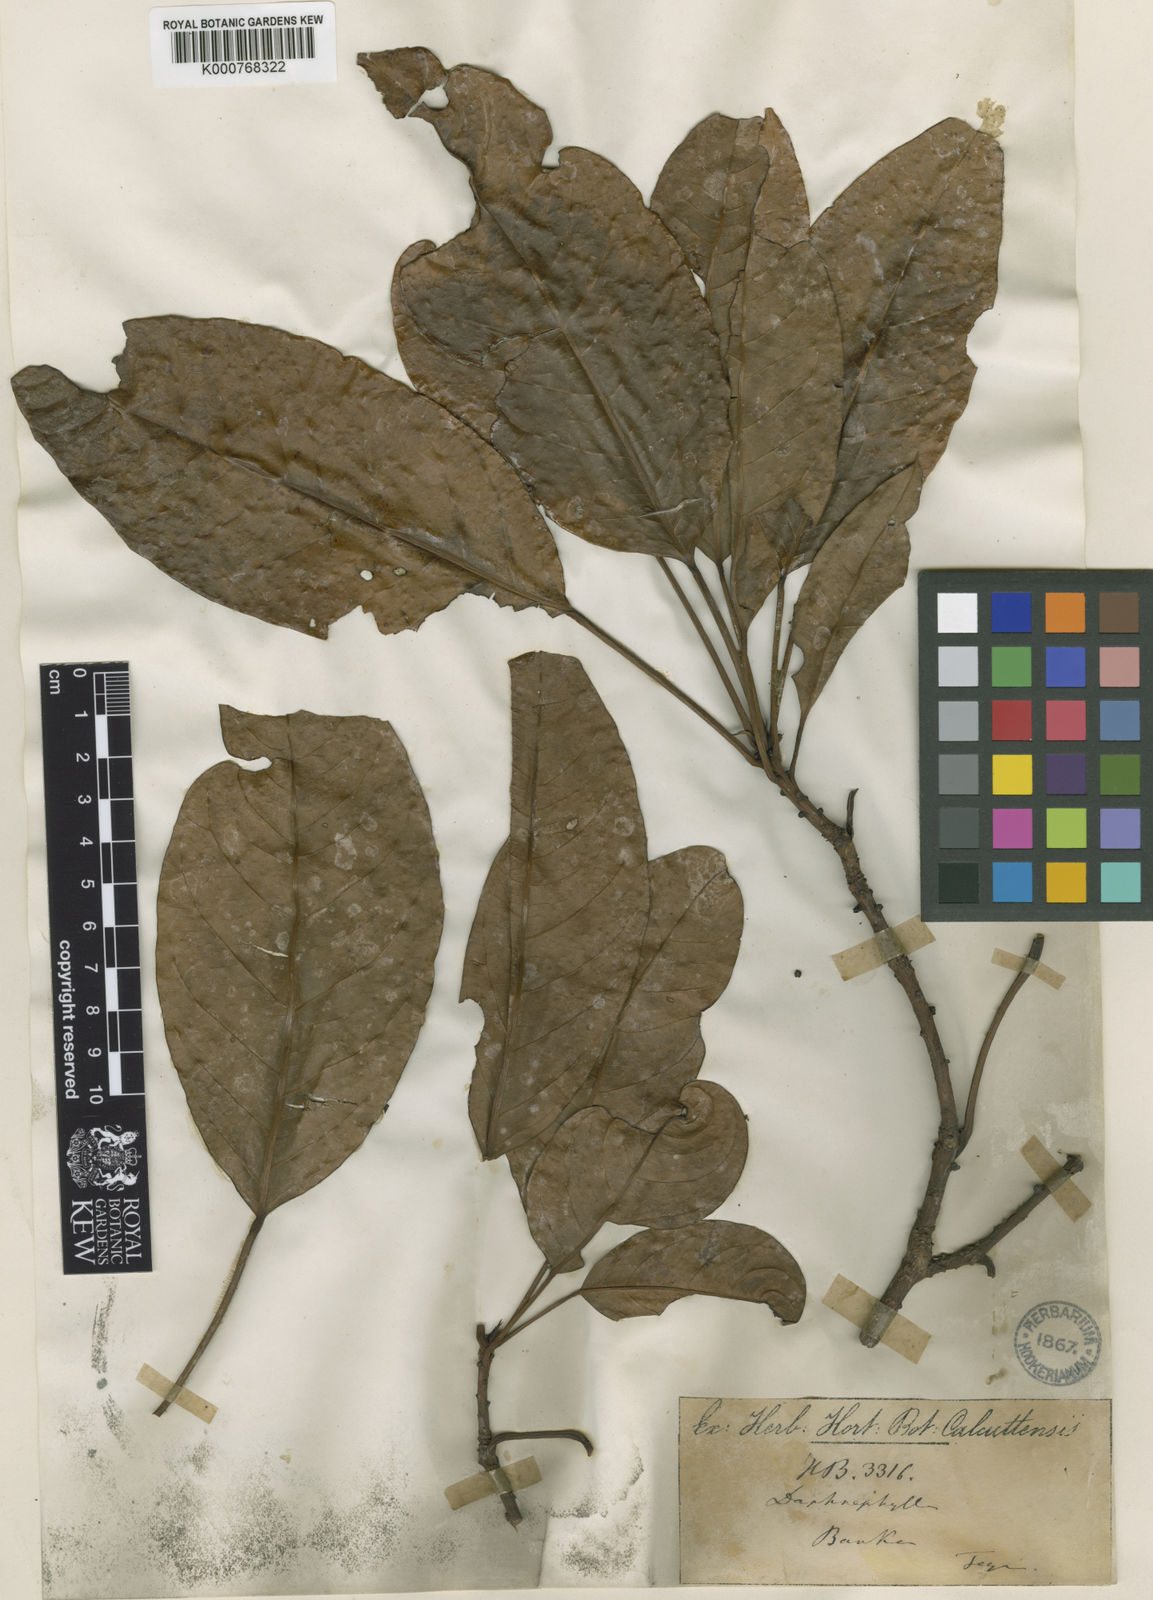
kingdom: Plantae
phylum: Tracheophyta
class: Magnoliopsida
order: Saxifragales
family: Daphniphyllaceae
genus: Daphniphyllum
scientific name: Daphniphyllum laurinum
